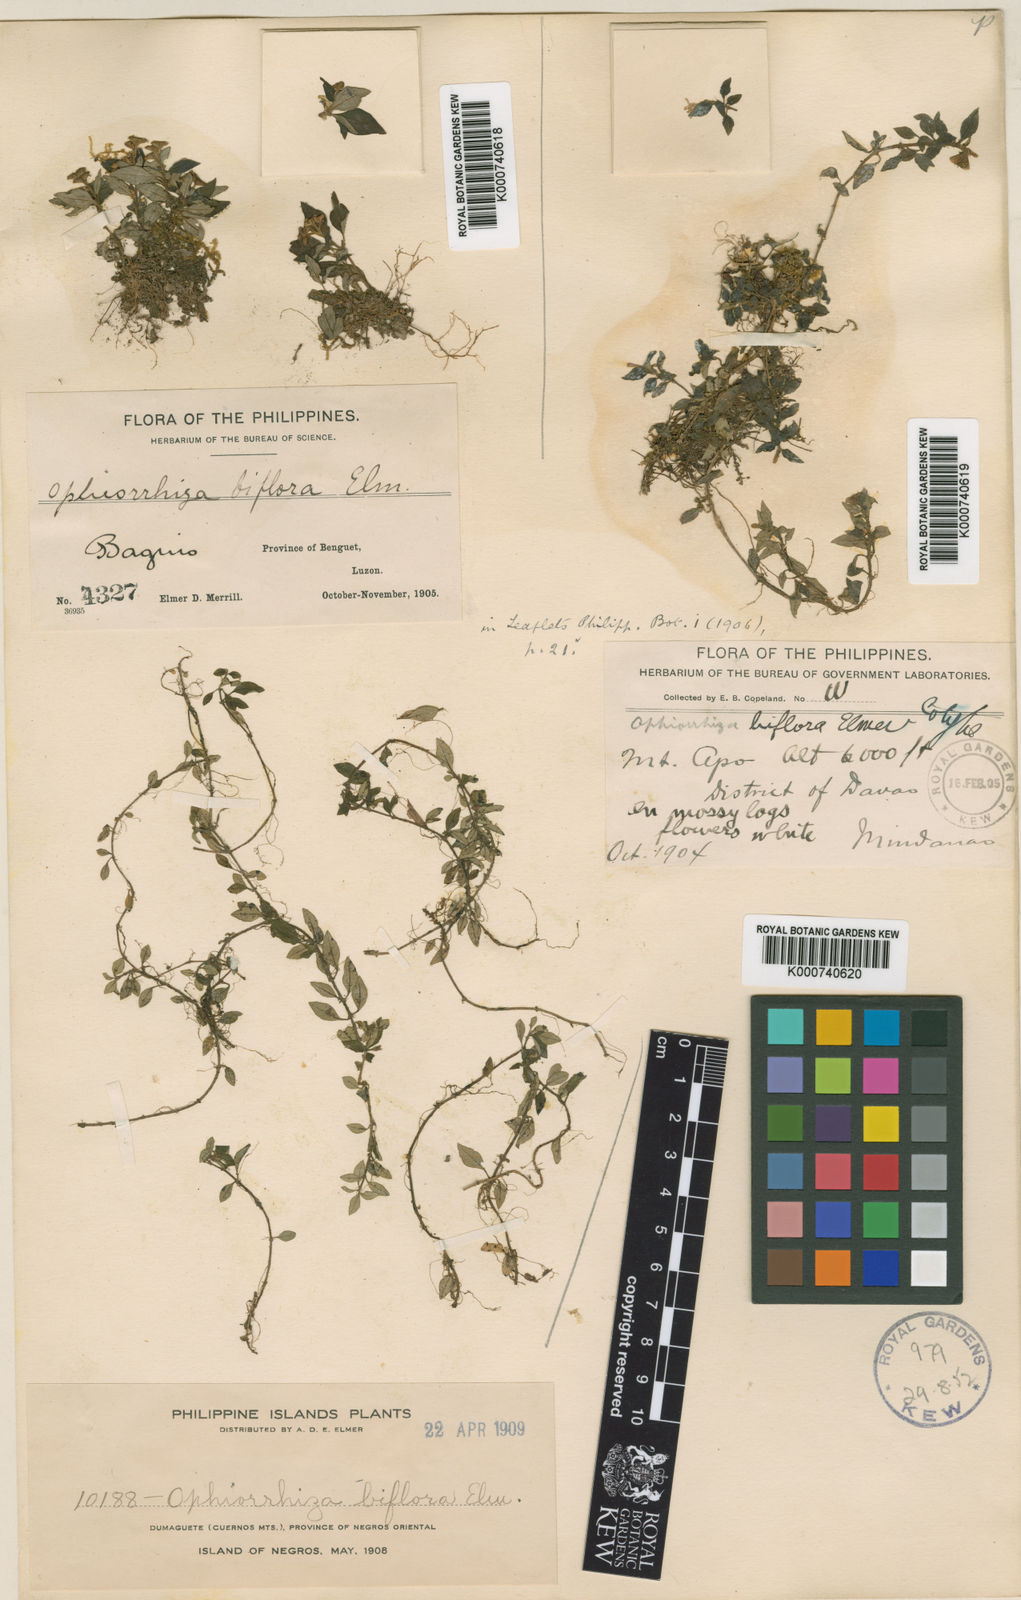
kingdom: Plantae
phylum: Tracheophyta
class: Magnoliopsida
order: Gentianales
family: Rubiaceae
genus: Ophiorrhiza
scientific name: Ophiorrhiza biflora
